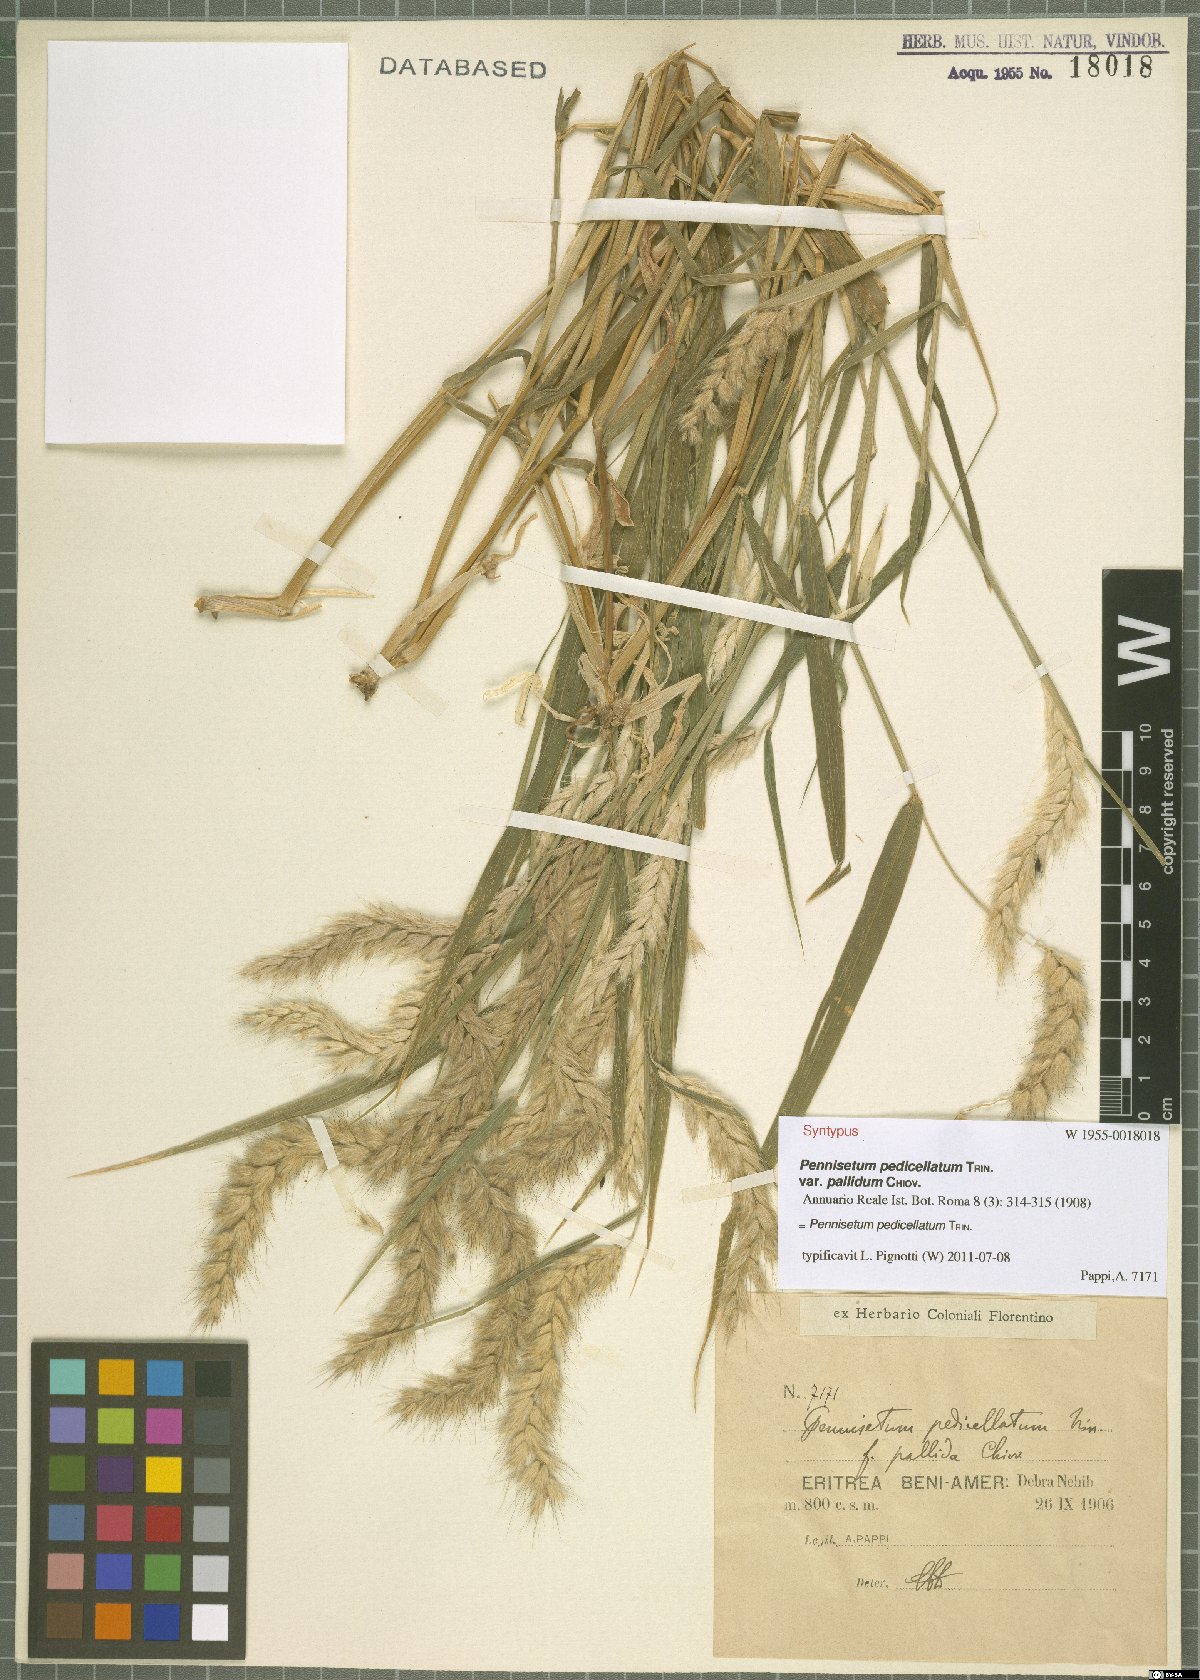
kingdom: Plantae
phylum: Tracheophyta
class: Liliopsida
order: Poales
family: Poaceae
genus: Cenchrus
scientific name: Cenchrus pedicellatus
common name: Hairy fountain grass
